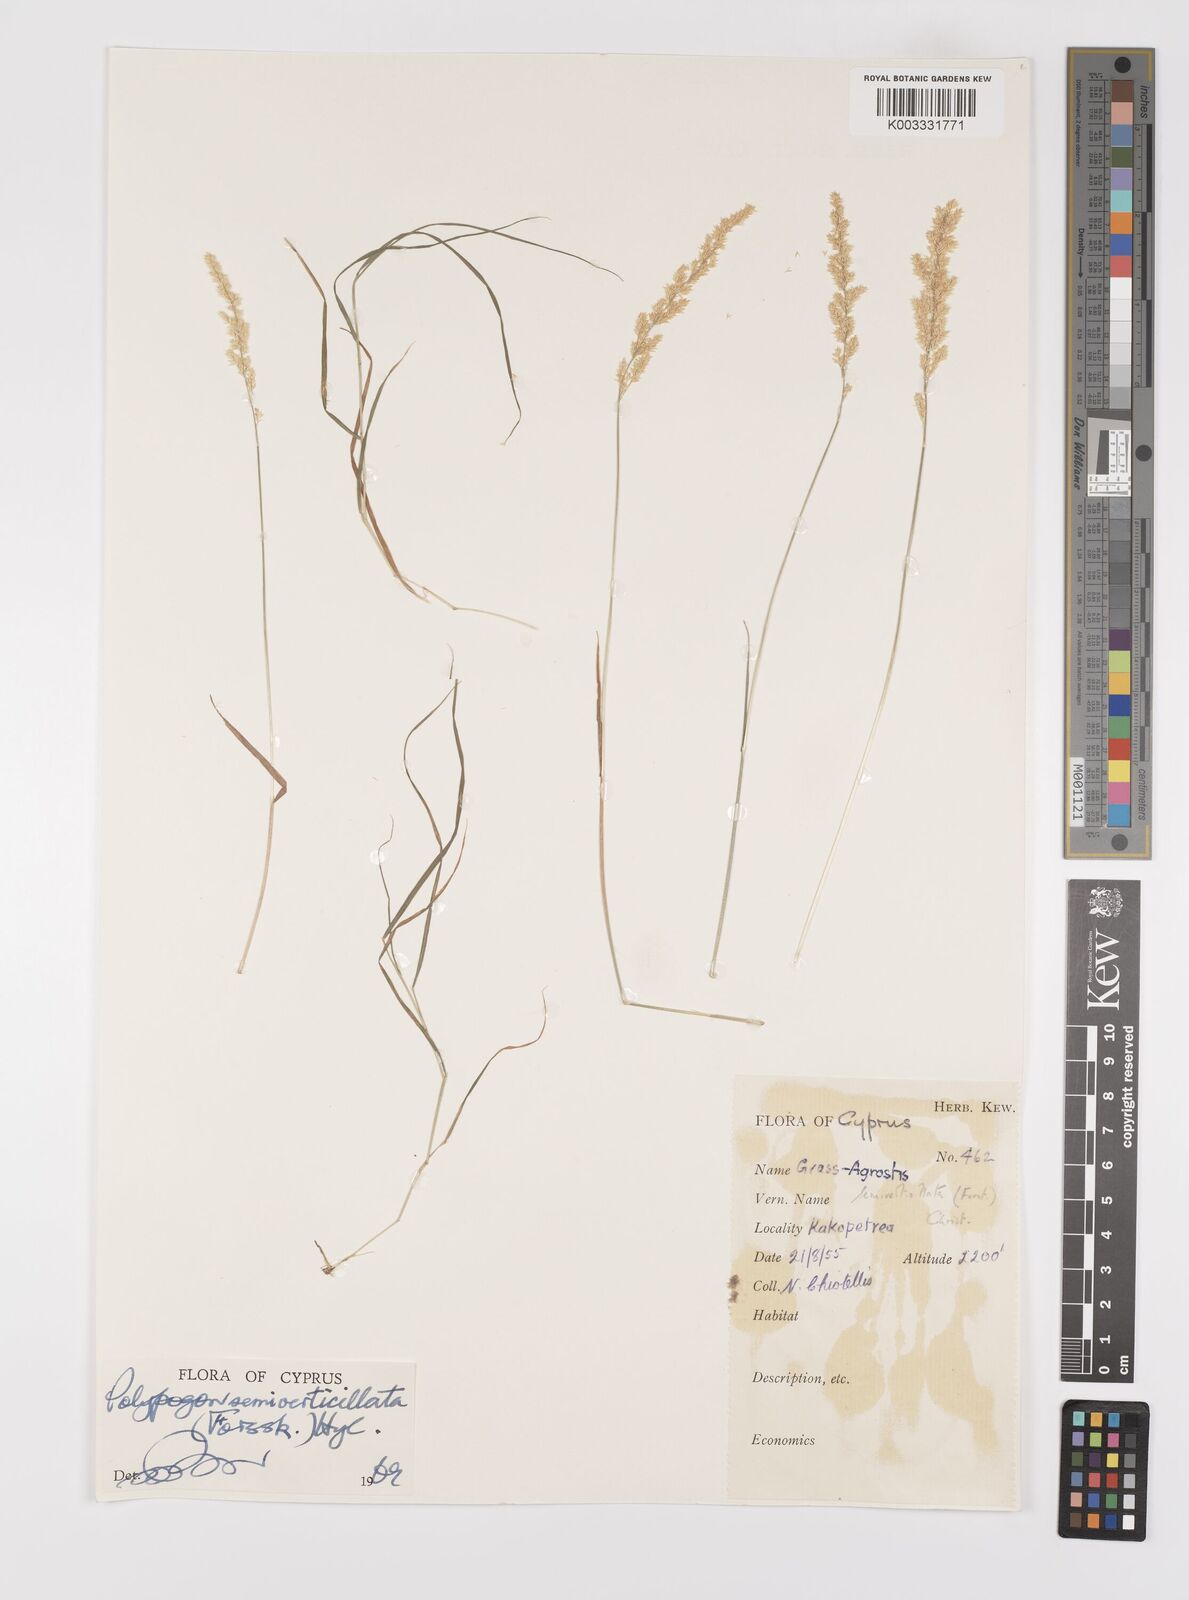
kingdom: Plantae
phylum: Tracheophyta
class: Liliopsida
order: Poales
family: Poaceae
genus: Polypogon
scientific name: Polypogon viridis
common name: Water bent
